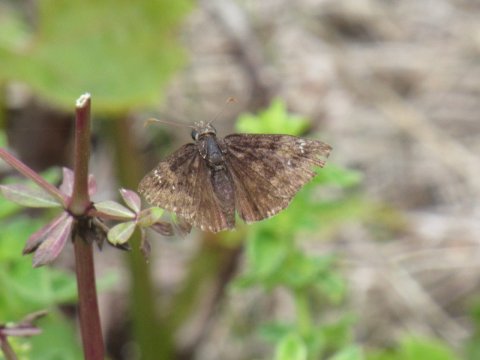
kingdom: Animalia
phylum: Arthropoda
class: Insecta
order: Lepidoptera
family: Hesperiidae
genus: Gesta
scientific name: Gesta
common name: Wild Indigo Duskywing
